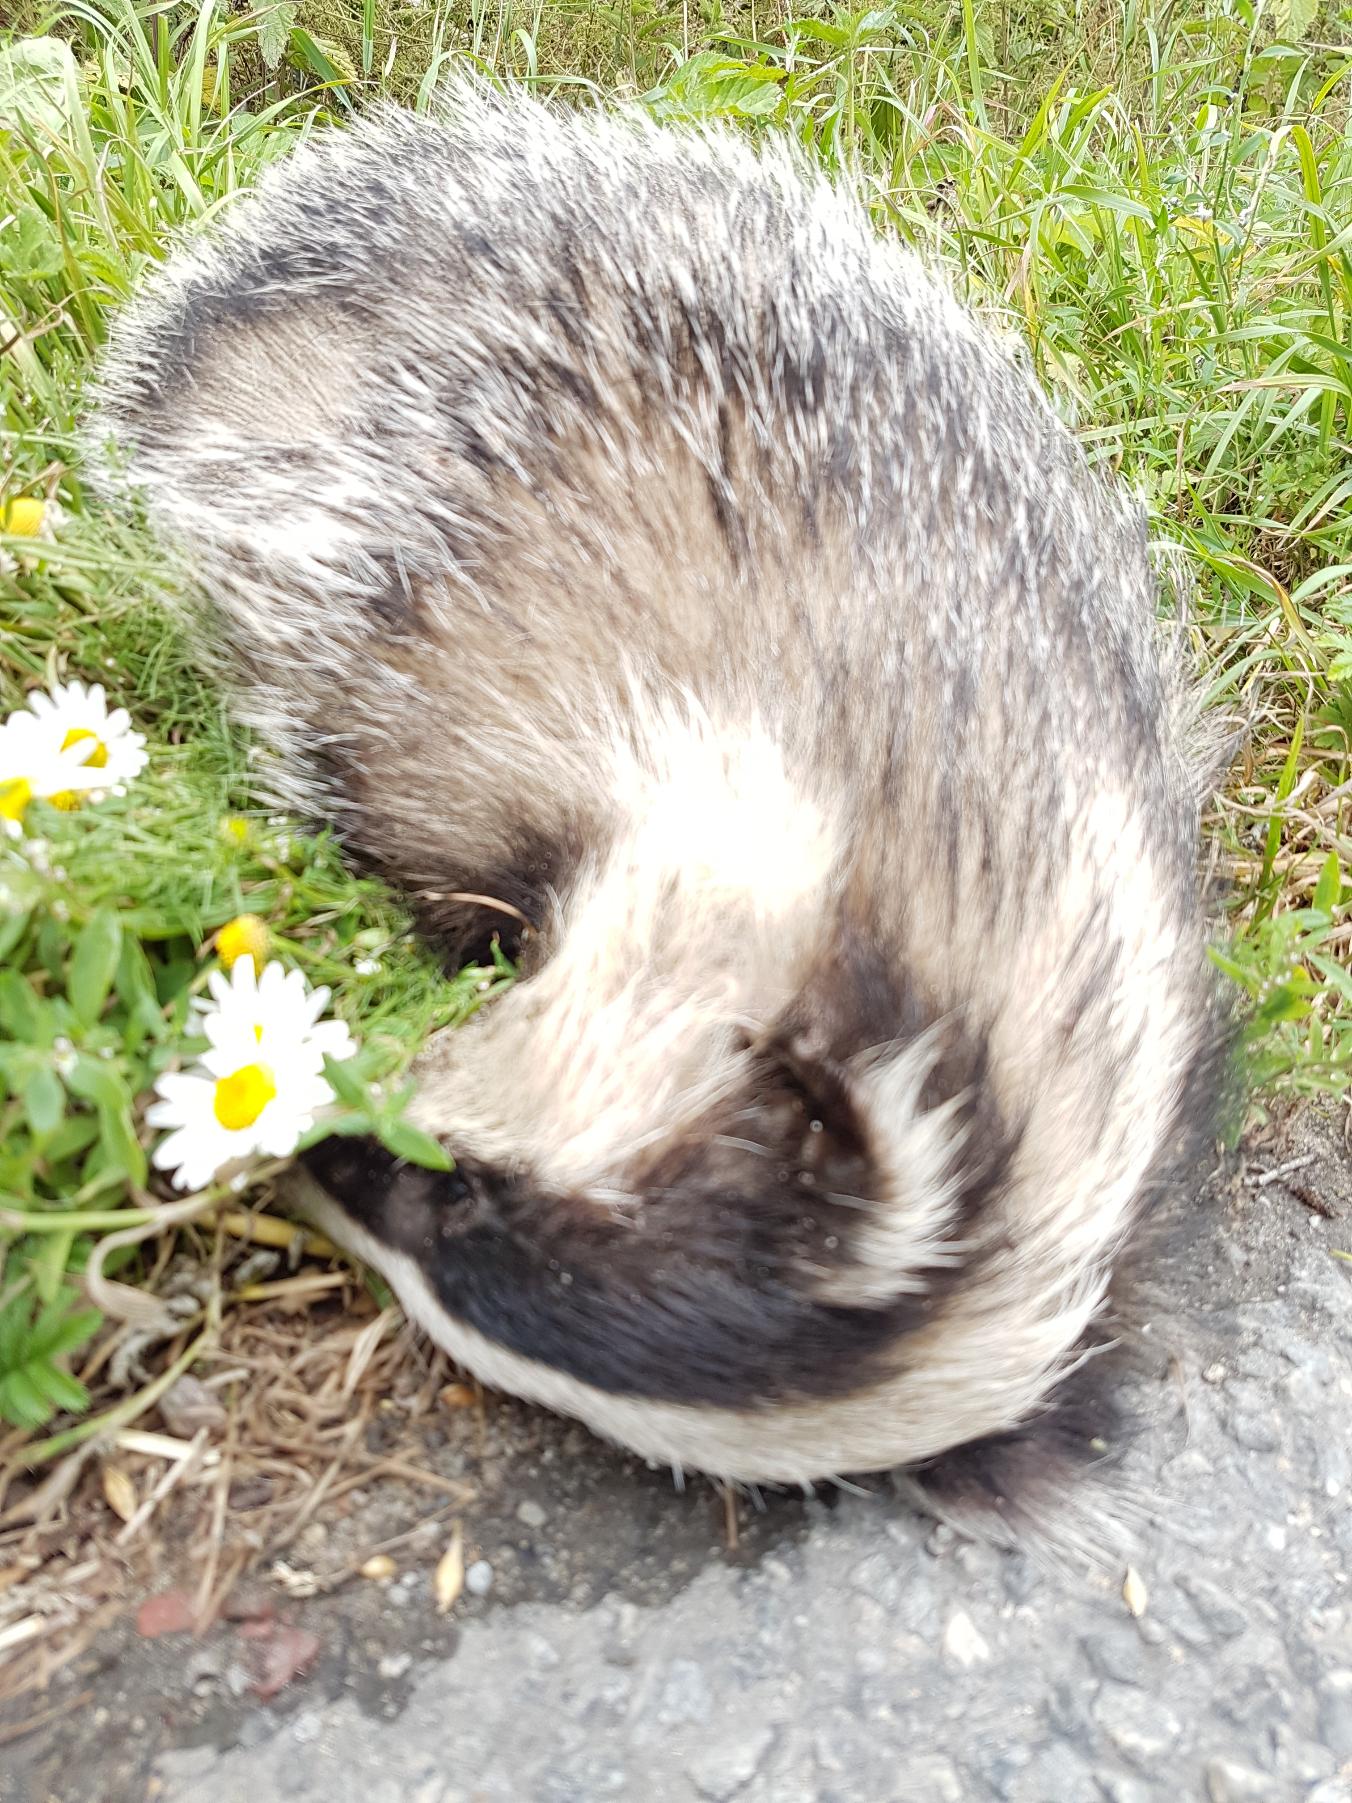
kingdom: Animalia
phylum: Chordata
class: Mammalia
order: Carnivora
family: Mustelidae
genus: Meles
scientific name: Meles meles
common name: Grævling
